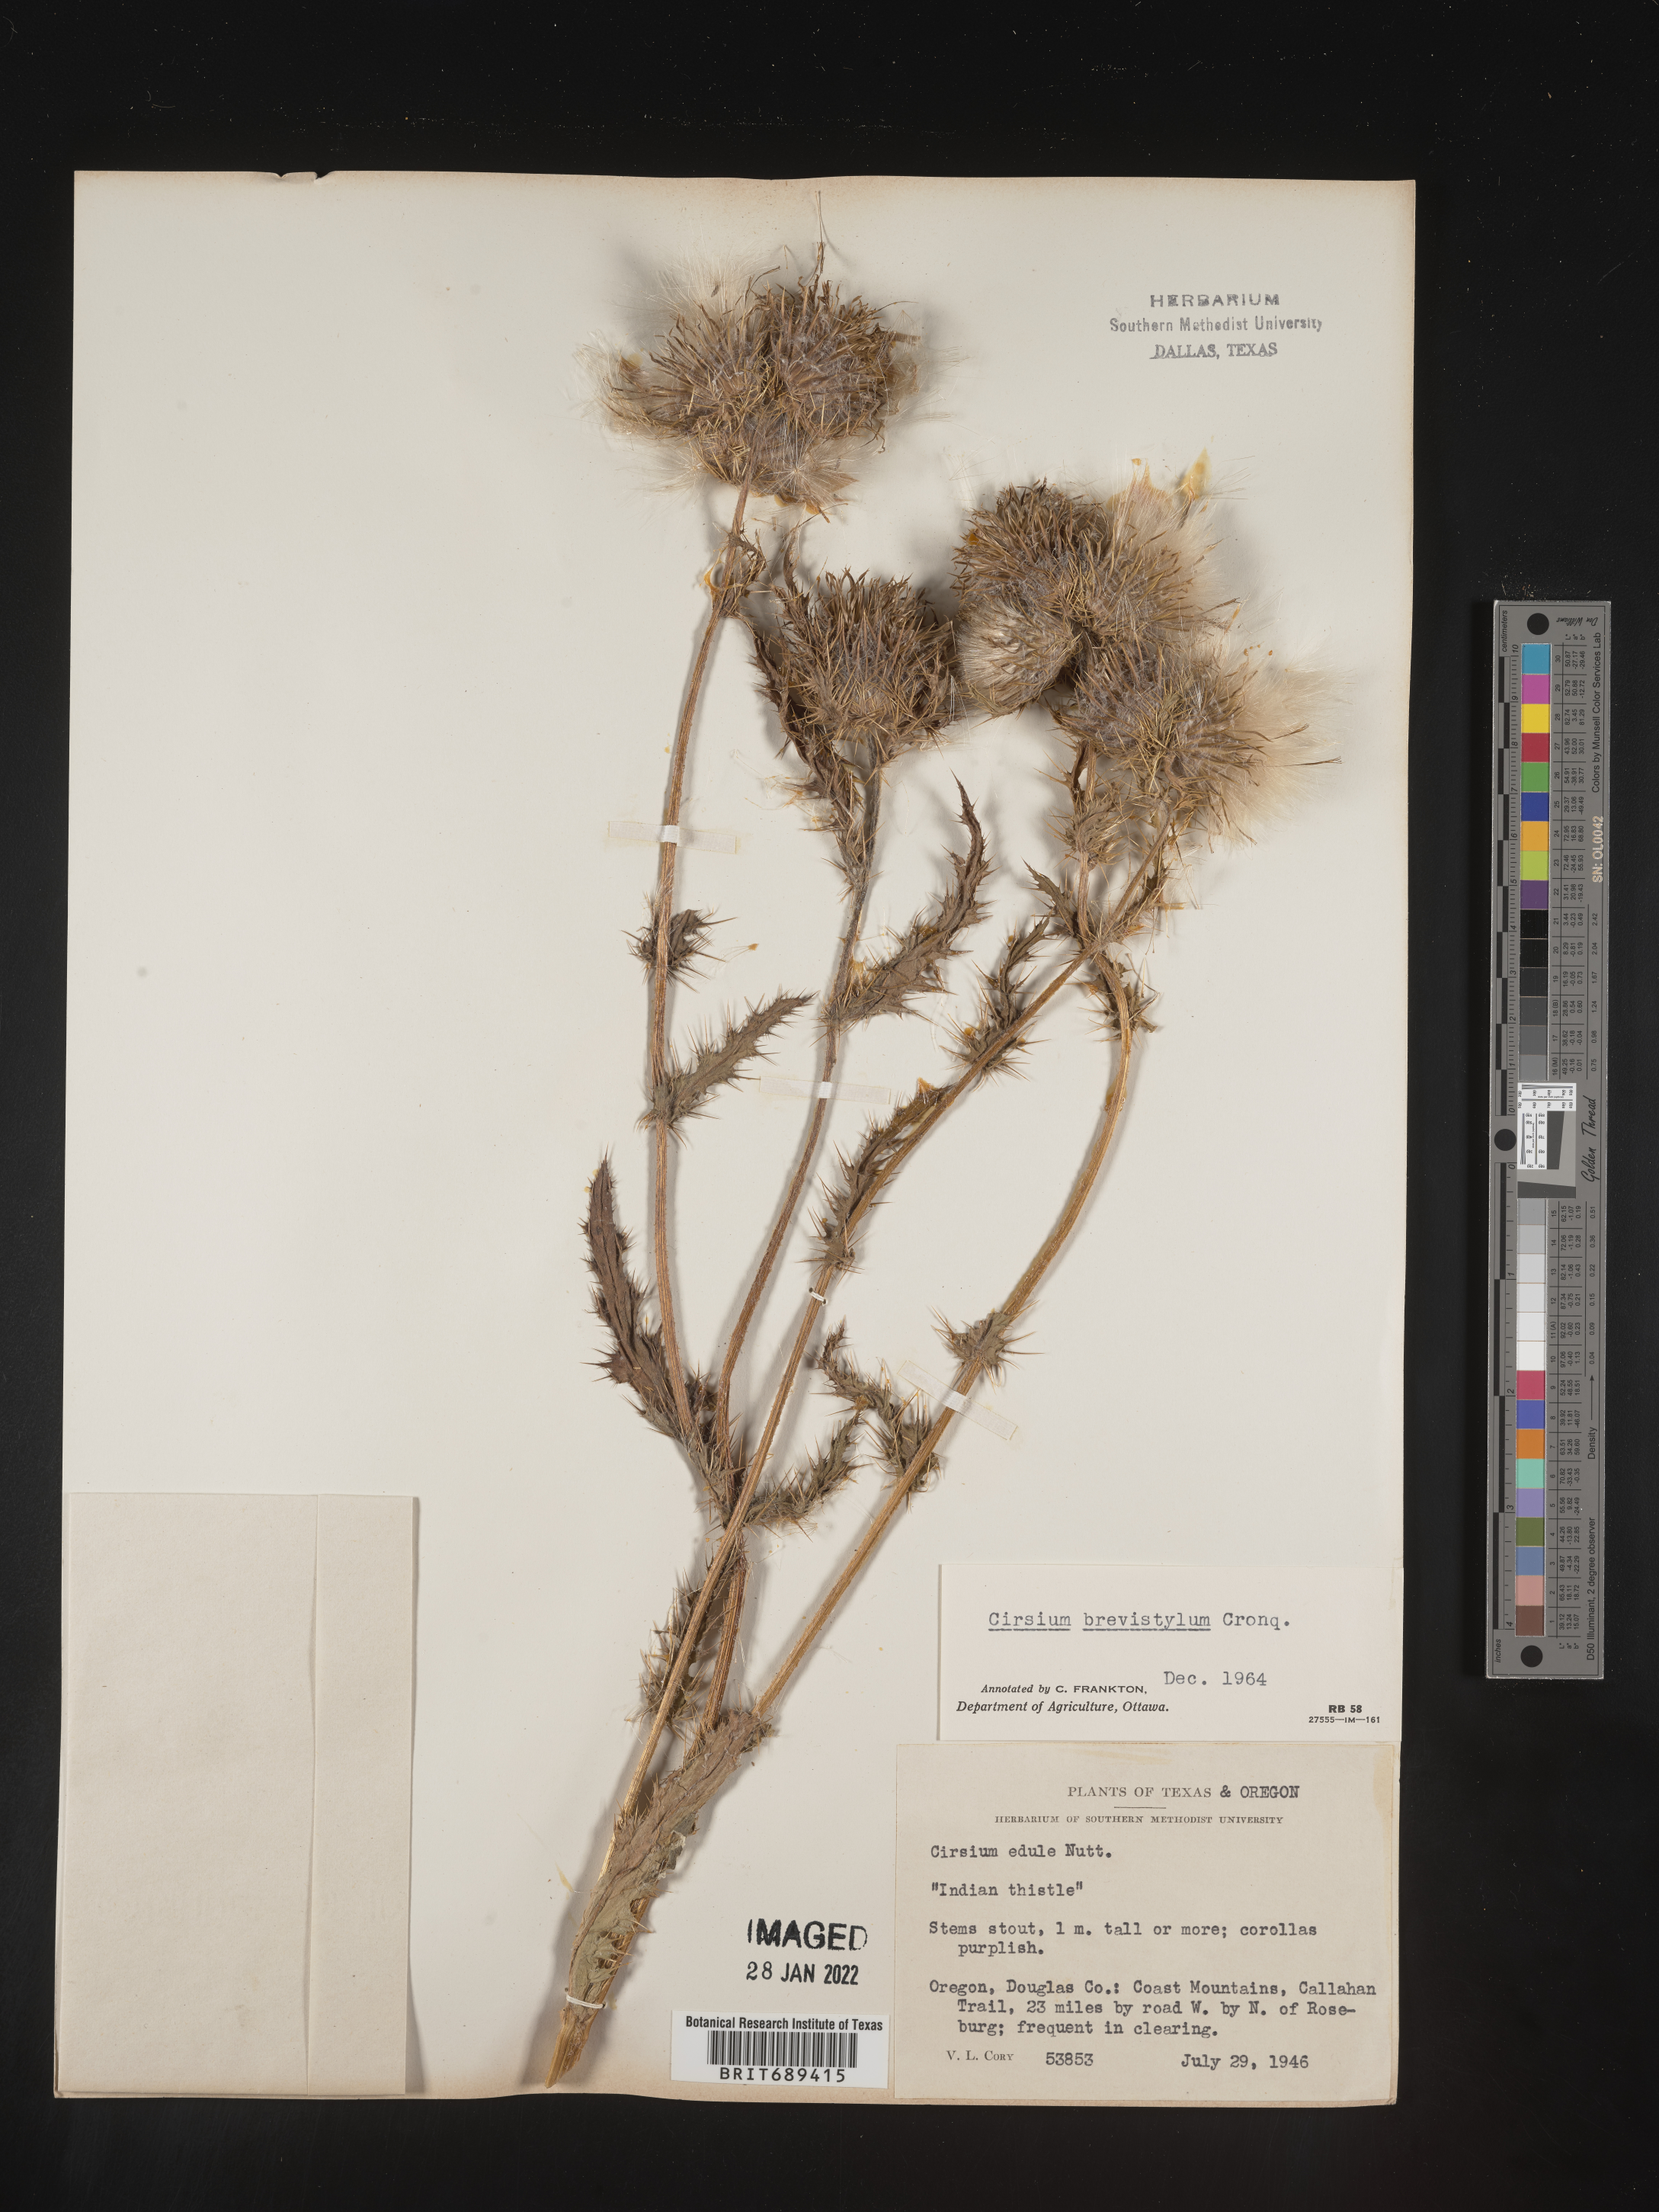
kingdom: Plantae
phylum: Tracheophyta
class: Magnoliopsida
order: Asterales
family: Asteraceae
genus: Cirsium
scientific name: Cirsium
